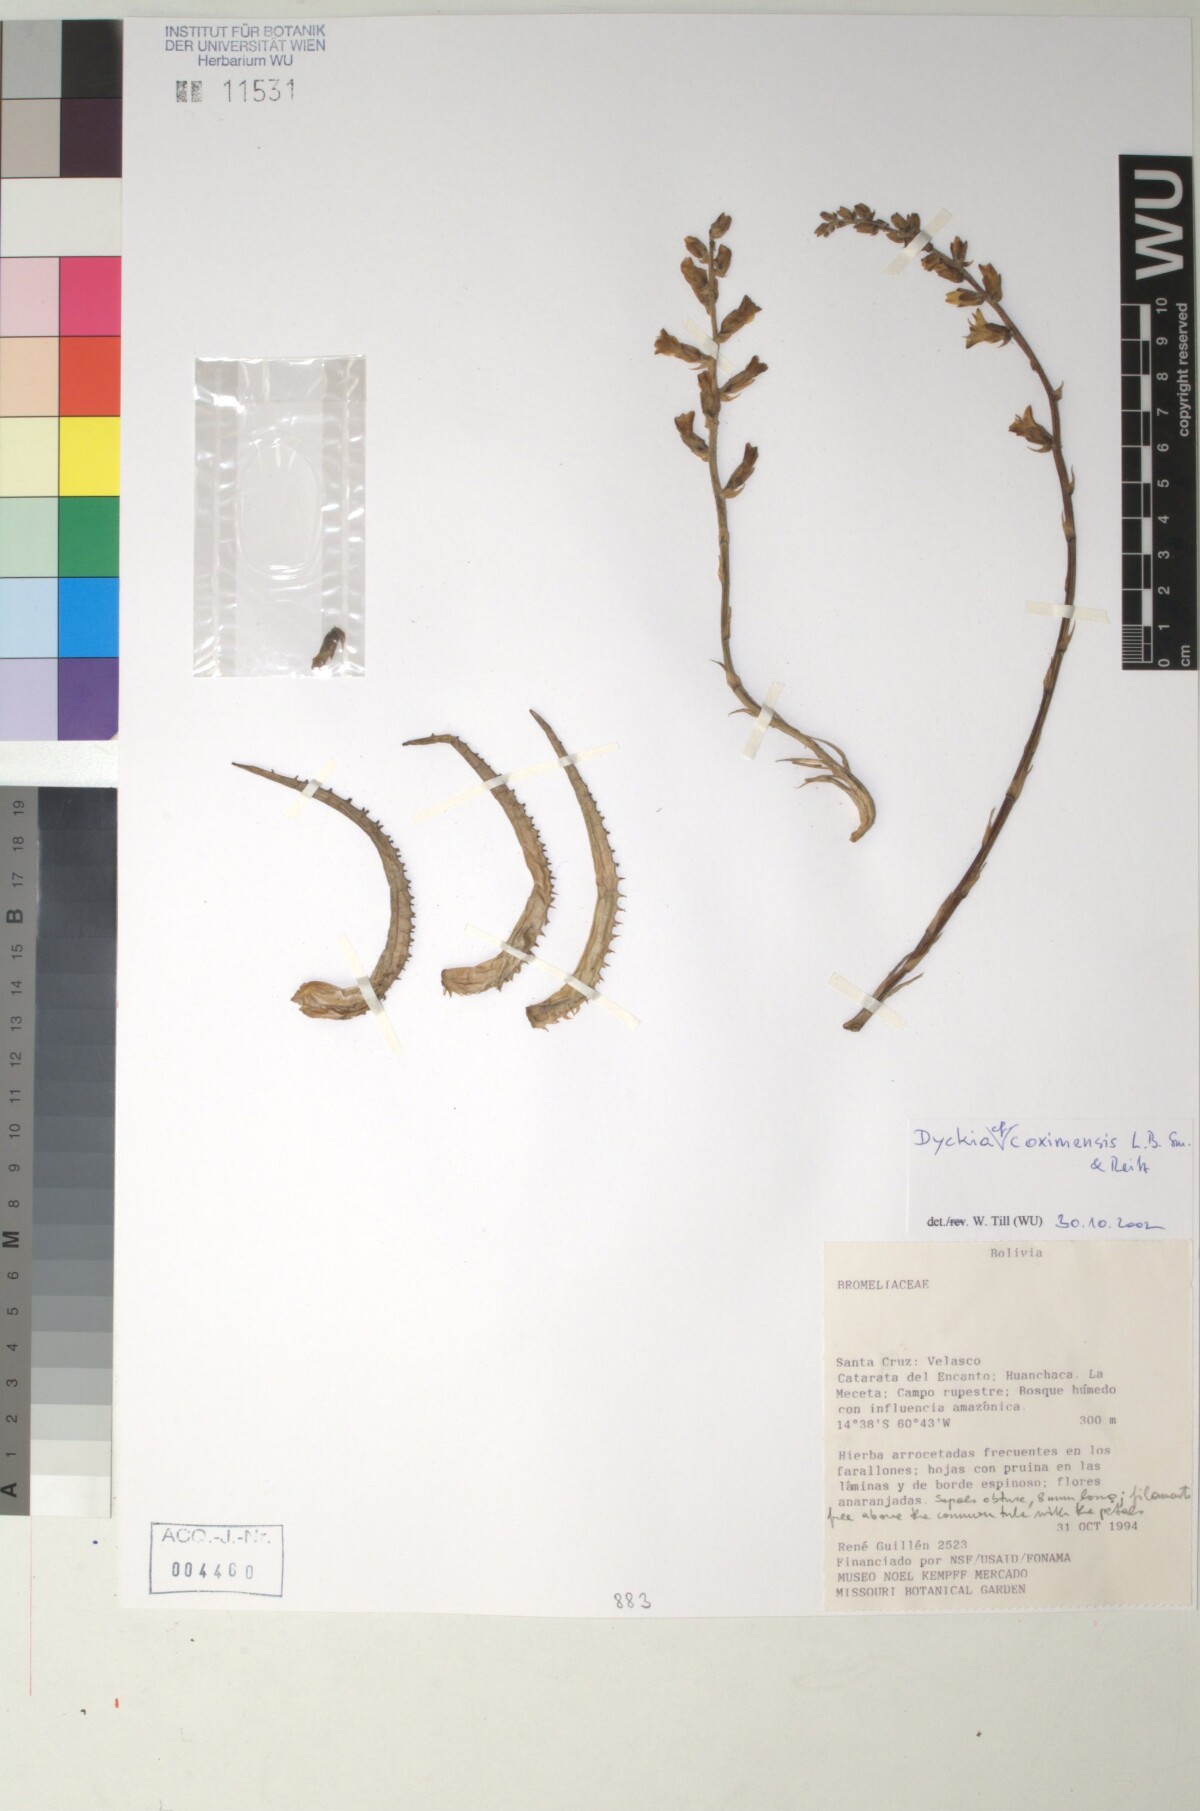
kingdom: Plantae
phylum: Tracheophyta
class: Liliopsida
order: Poales
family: Bromeliaceae
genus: Dyckia
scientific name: Dyckia coximensis
